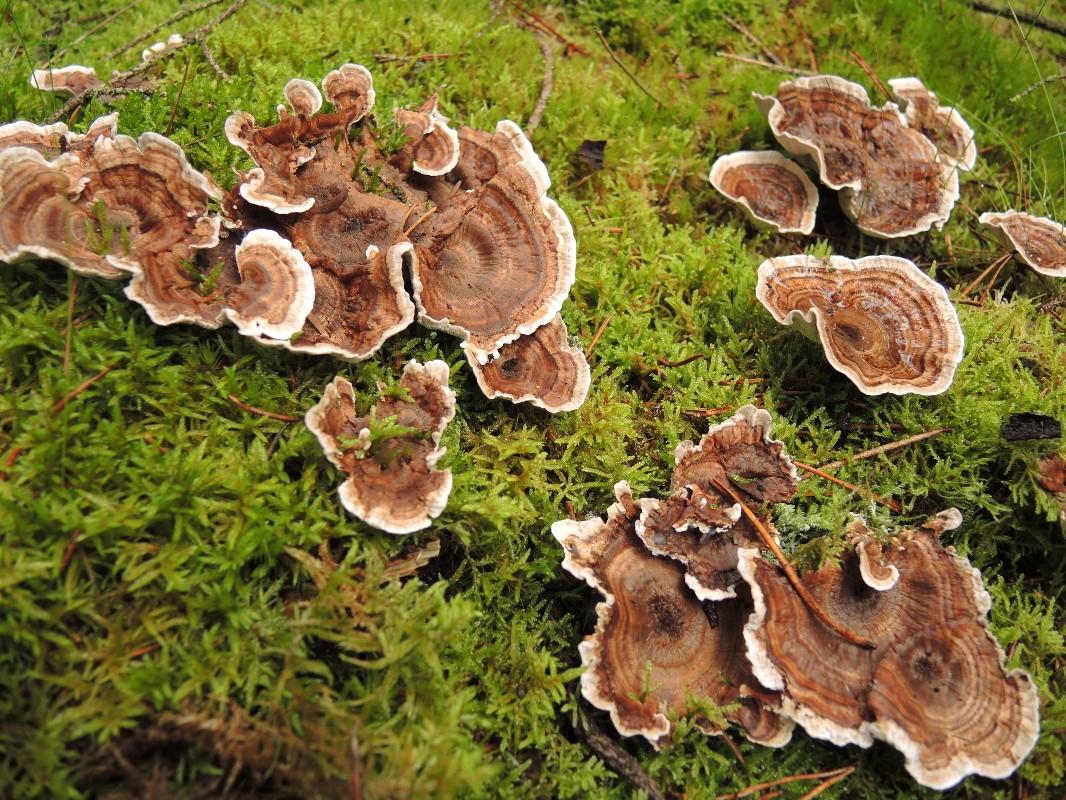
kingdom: Fungi
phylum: Basidiomycota
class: Agaricomycetes
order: Thelephorales
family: Thelephoraceae
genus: Phellodon
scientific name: Phellodon tomentosus
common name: tragtformet duftpigsvamp
